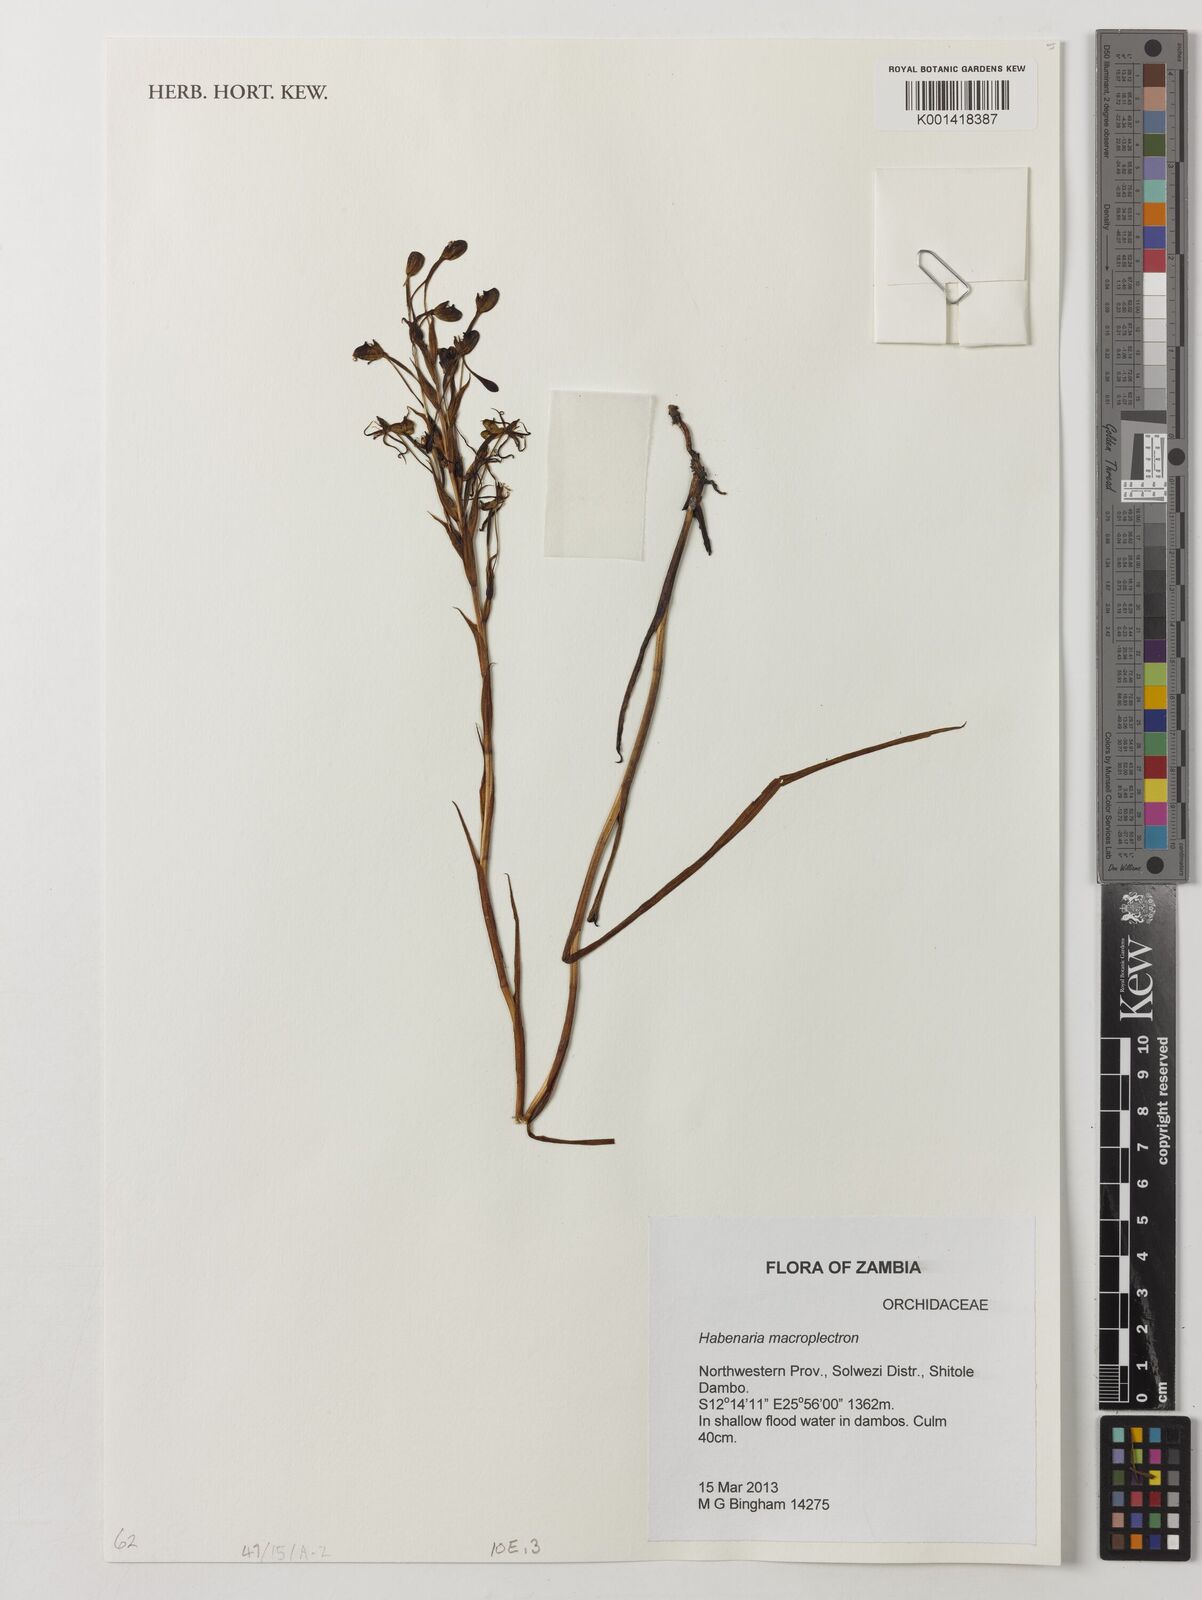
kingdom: Plantae
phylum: Tracheophyta
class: Liliopsida
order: Asparagales
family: Orchidaceae
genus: Habenaria
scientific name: Habenaria macroplectron
